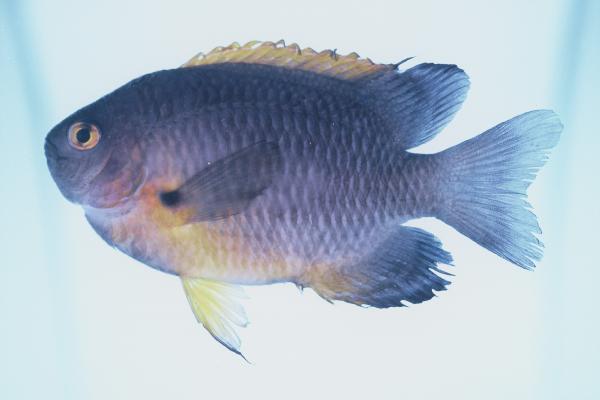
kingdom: Animalia
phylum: Chordata
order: Perciformes
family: Pomacentridae
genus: Pomacentrus
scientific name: Pomacentrus rodriguesensis
